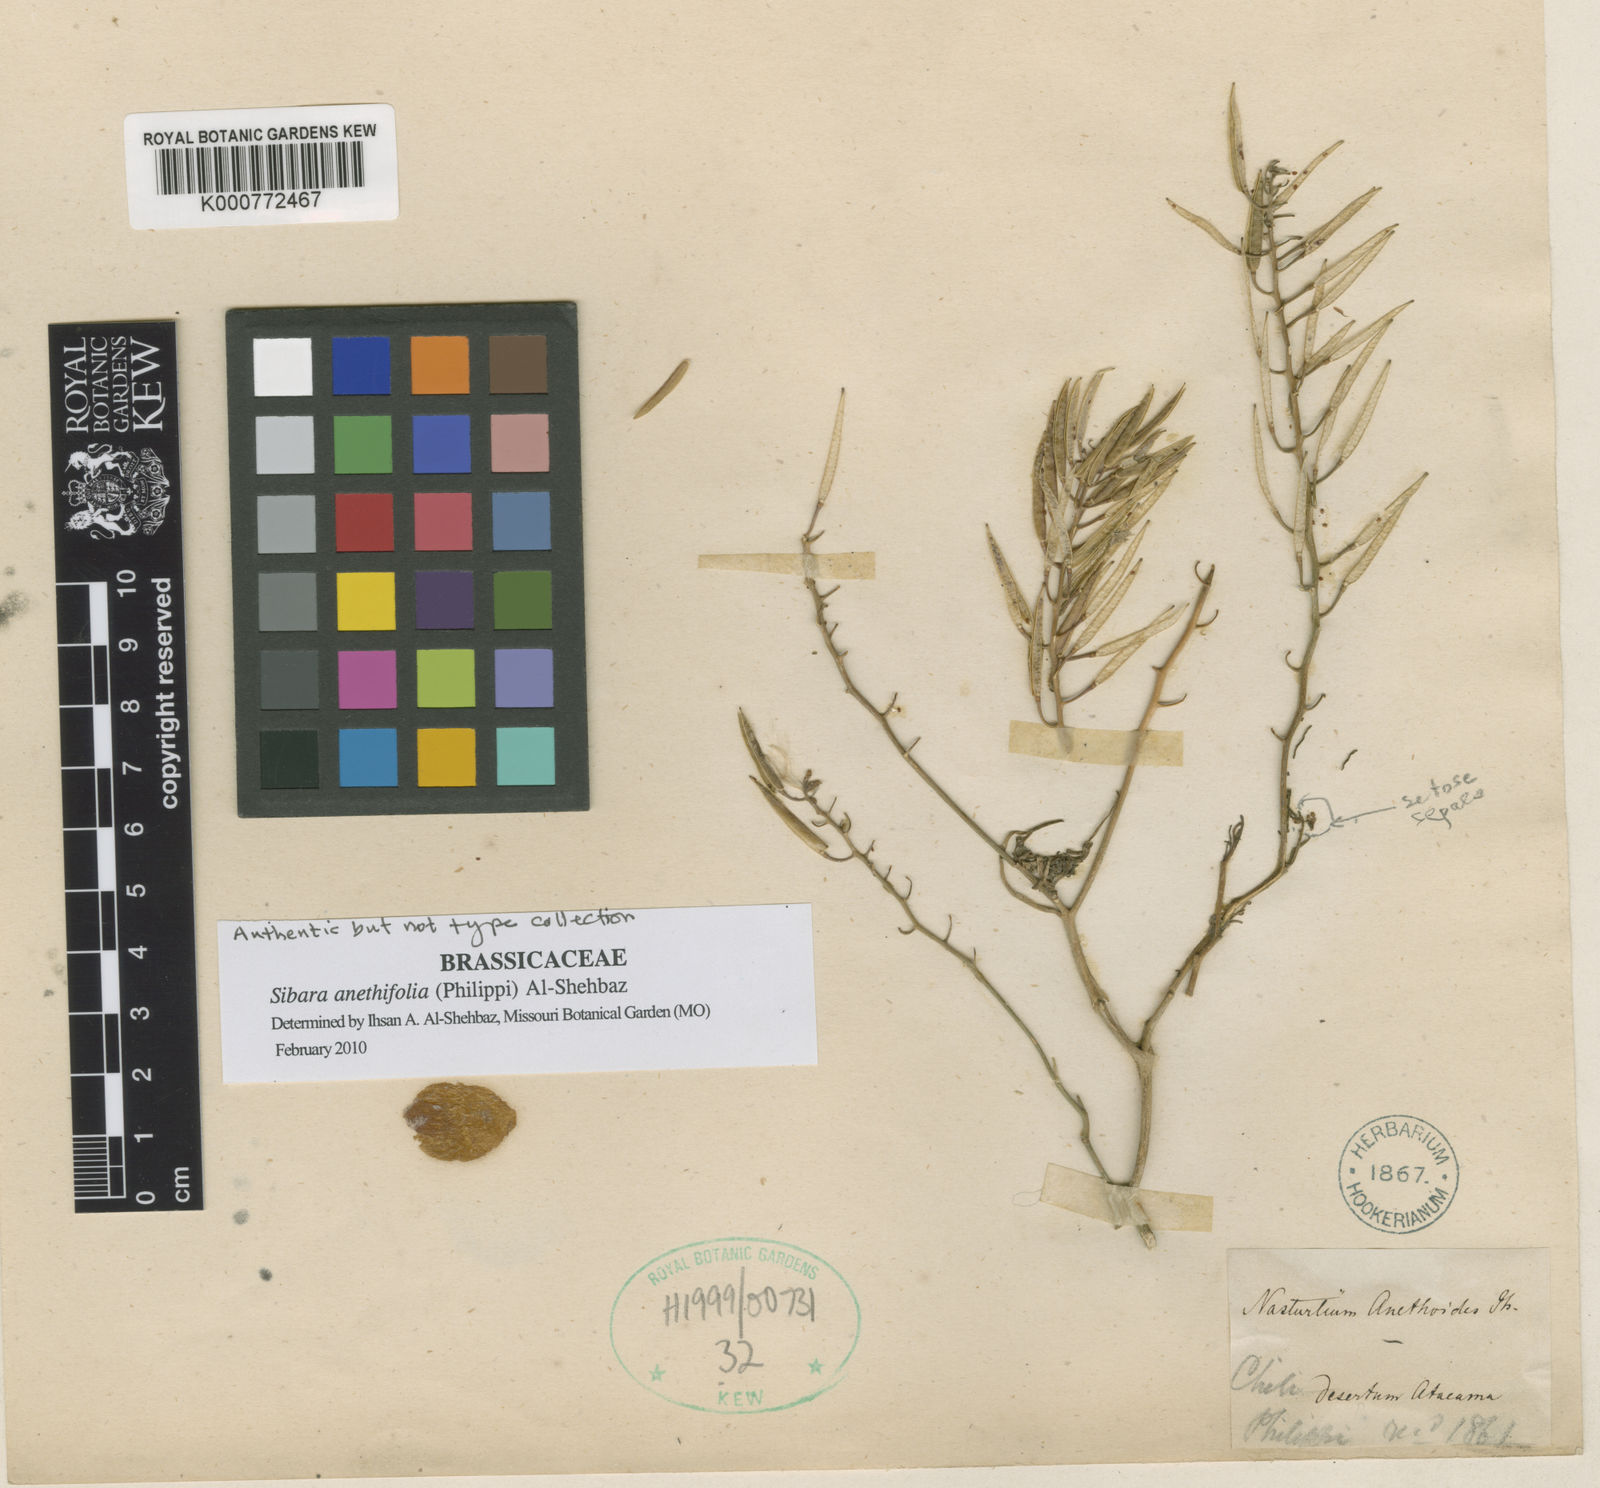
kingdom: Plantae
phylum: Tracheophyta
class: Magnoliopsida
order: Brassicales
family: Brassicaceae
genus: Sibara
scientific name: Sibara anethifolia
